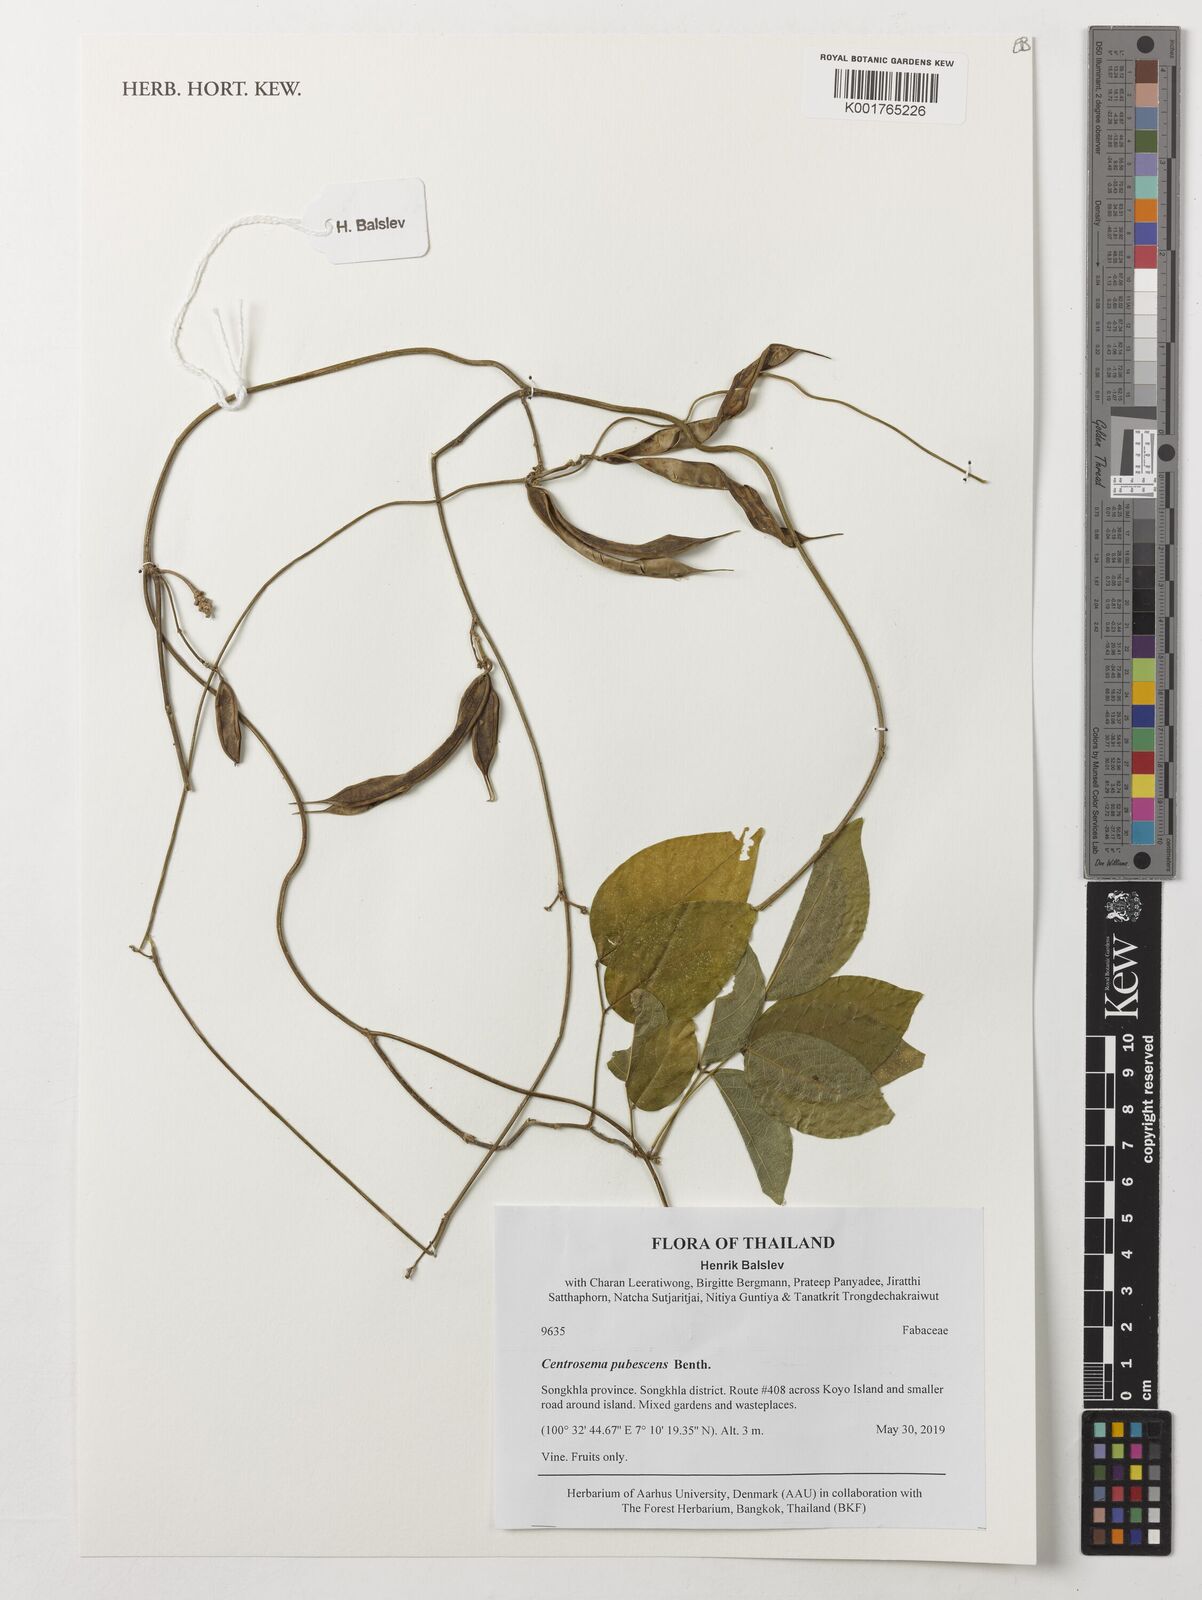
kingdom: Plantae
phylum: Tracheophyta
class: Magnoliopsida
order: Fabales
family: Fabaceae
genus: Centrosema
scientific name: Centrosema pubescens
